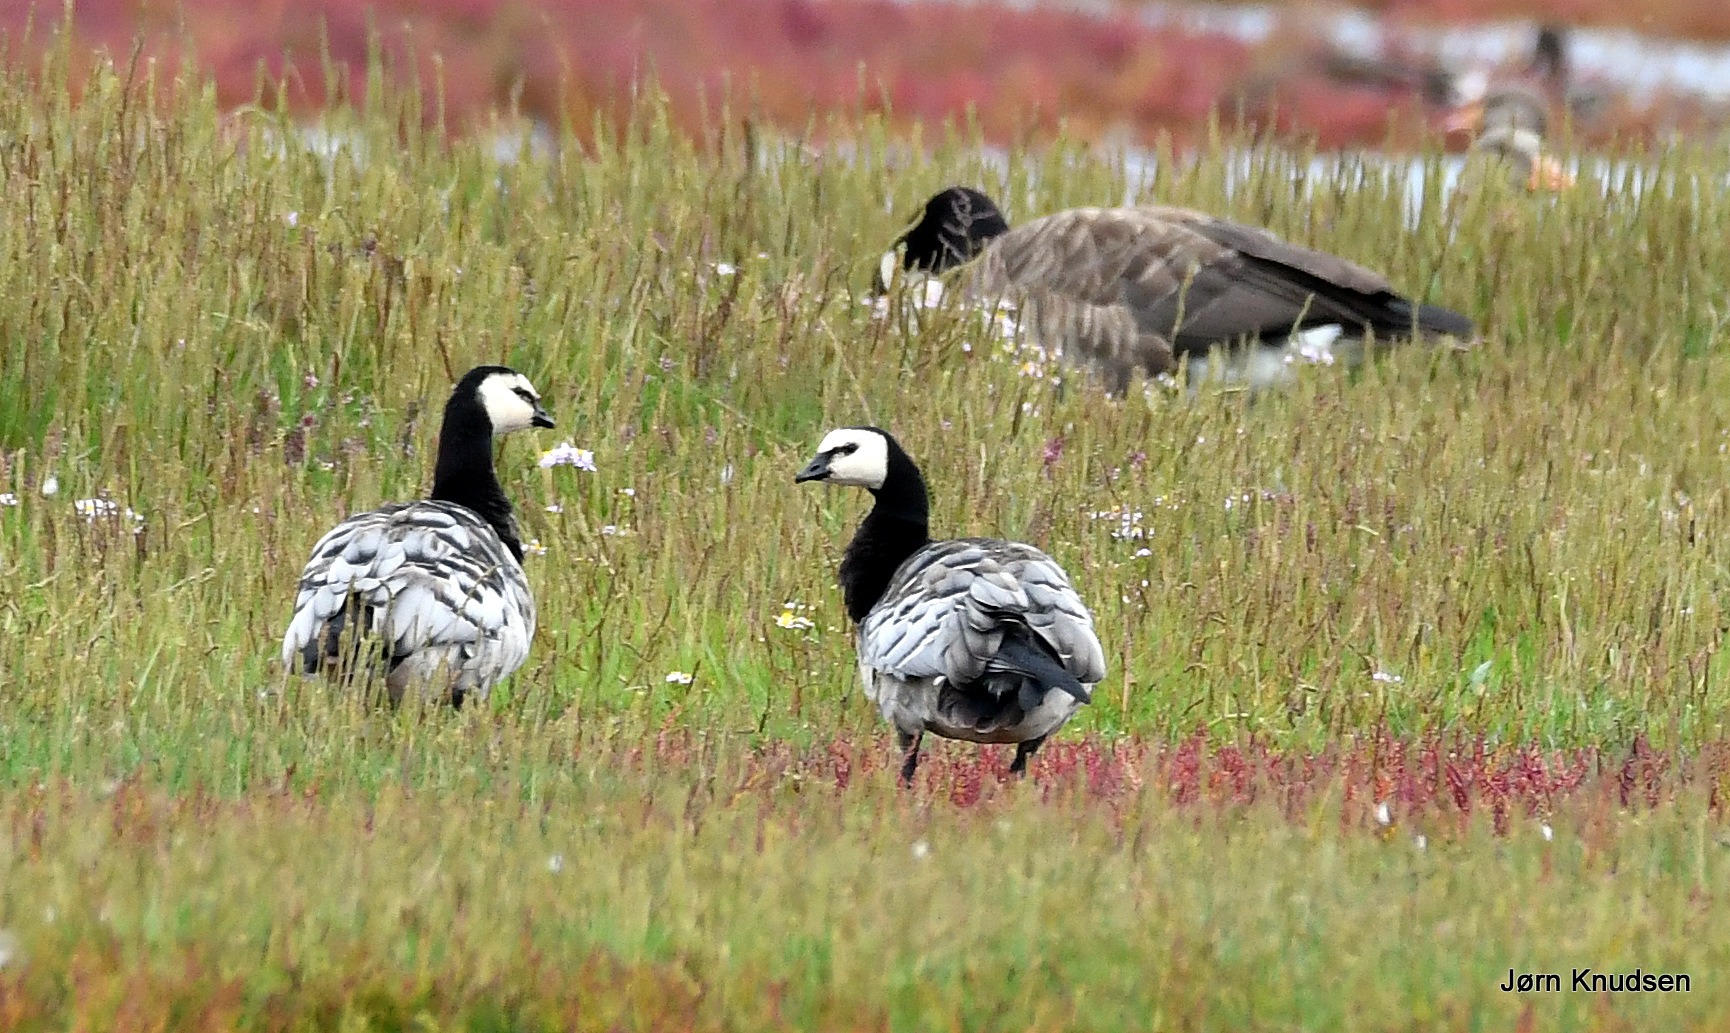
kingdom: Animalia
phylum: Chordata
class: Aves
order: Anseriformes
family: Anatidae
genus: Branta
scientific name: Branta leucopsis
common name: Bramgås
